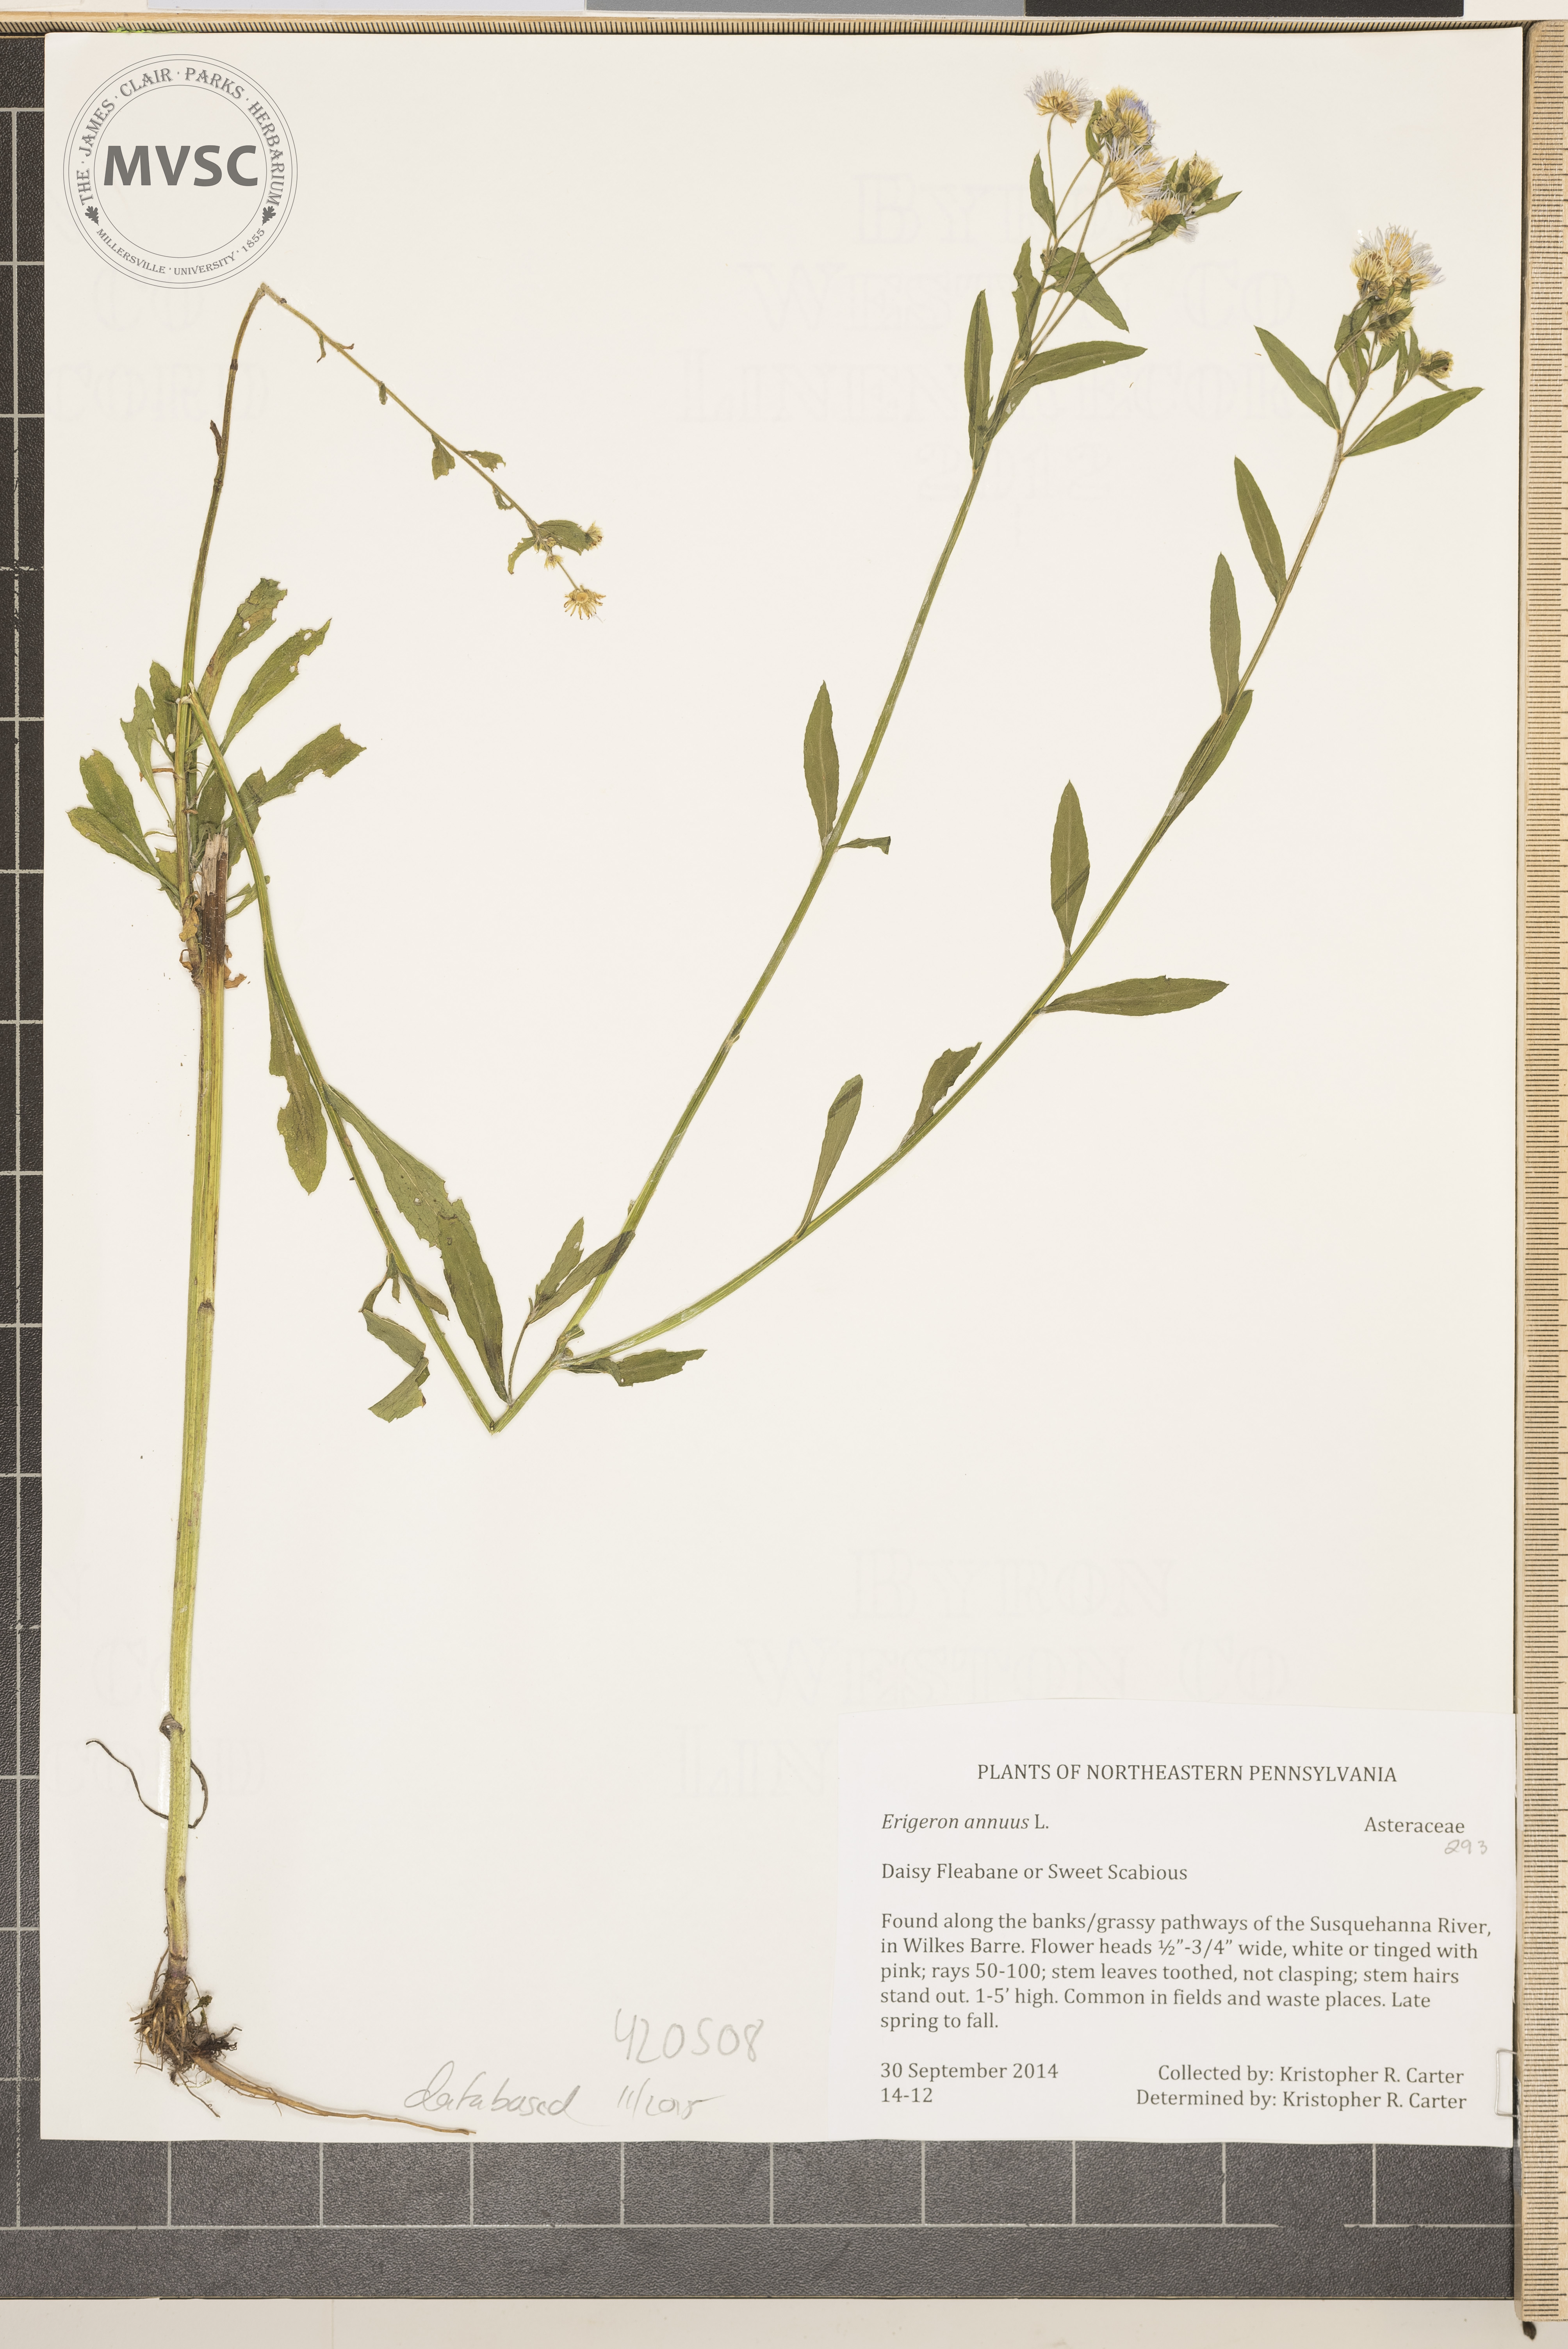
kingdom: Plantae
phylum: Tracheophyta
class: Magnoliopsida
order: Asterales
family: Asteraceae
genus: Erigeron
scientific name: Erigeron annuus
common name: Daisy Fleabane
